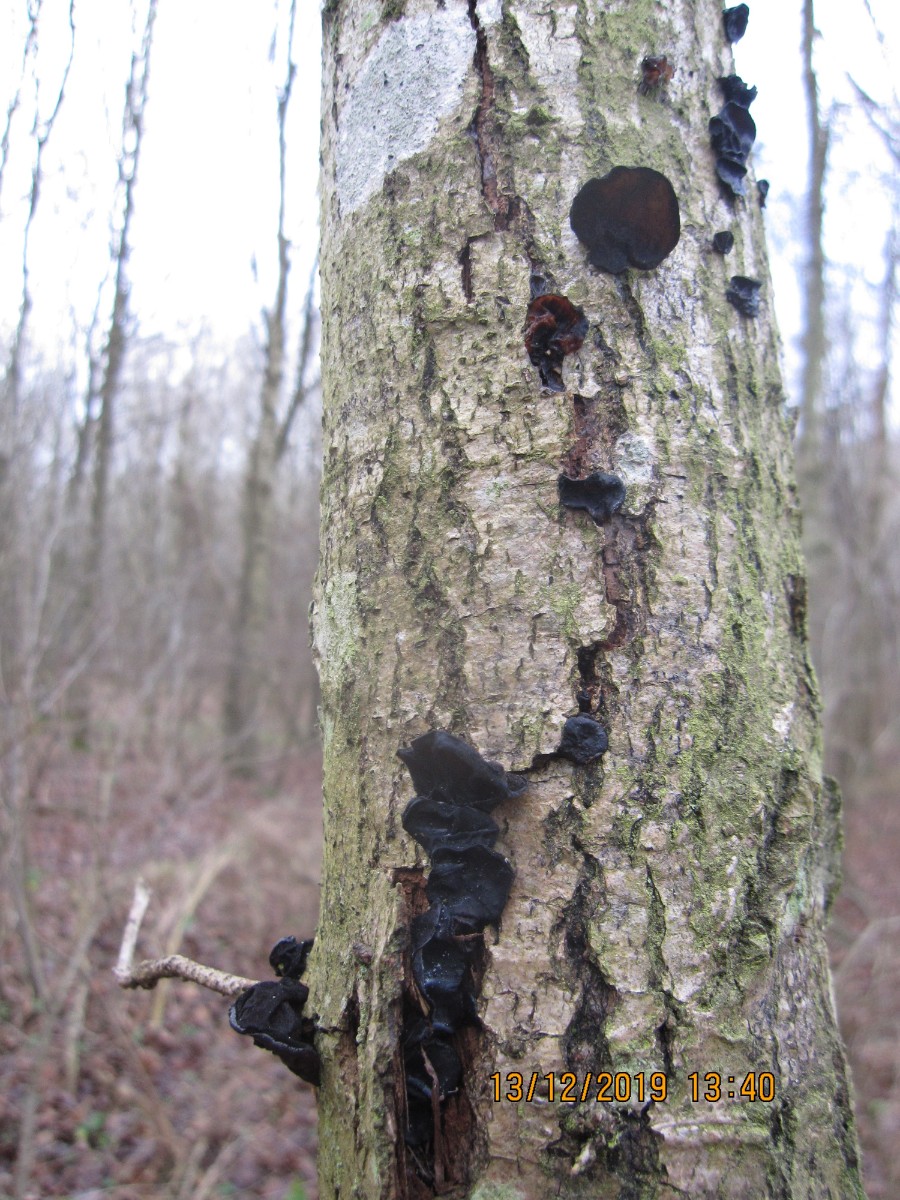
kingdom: Fungi
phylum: Basidiomycota
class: Agaricomycetes
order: Auriculariales
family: Auriculariaceae
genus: Exidia
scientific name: Exidia glandulosa
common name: ege-bævretop
